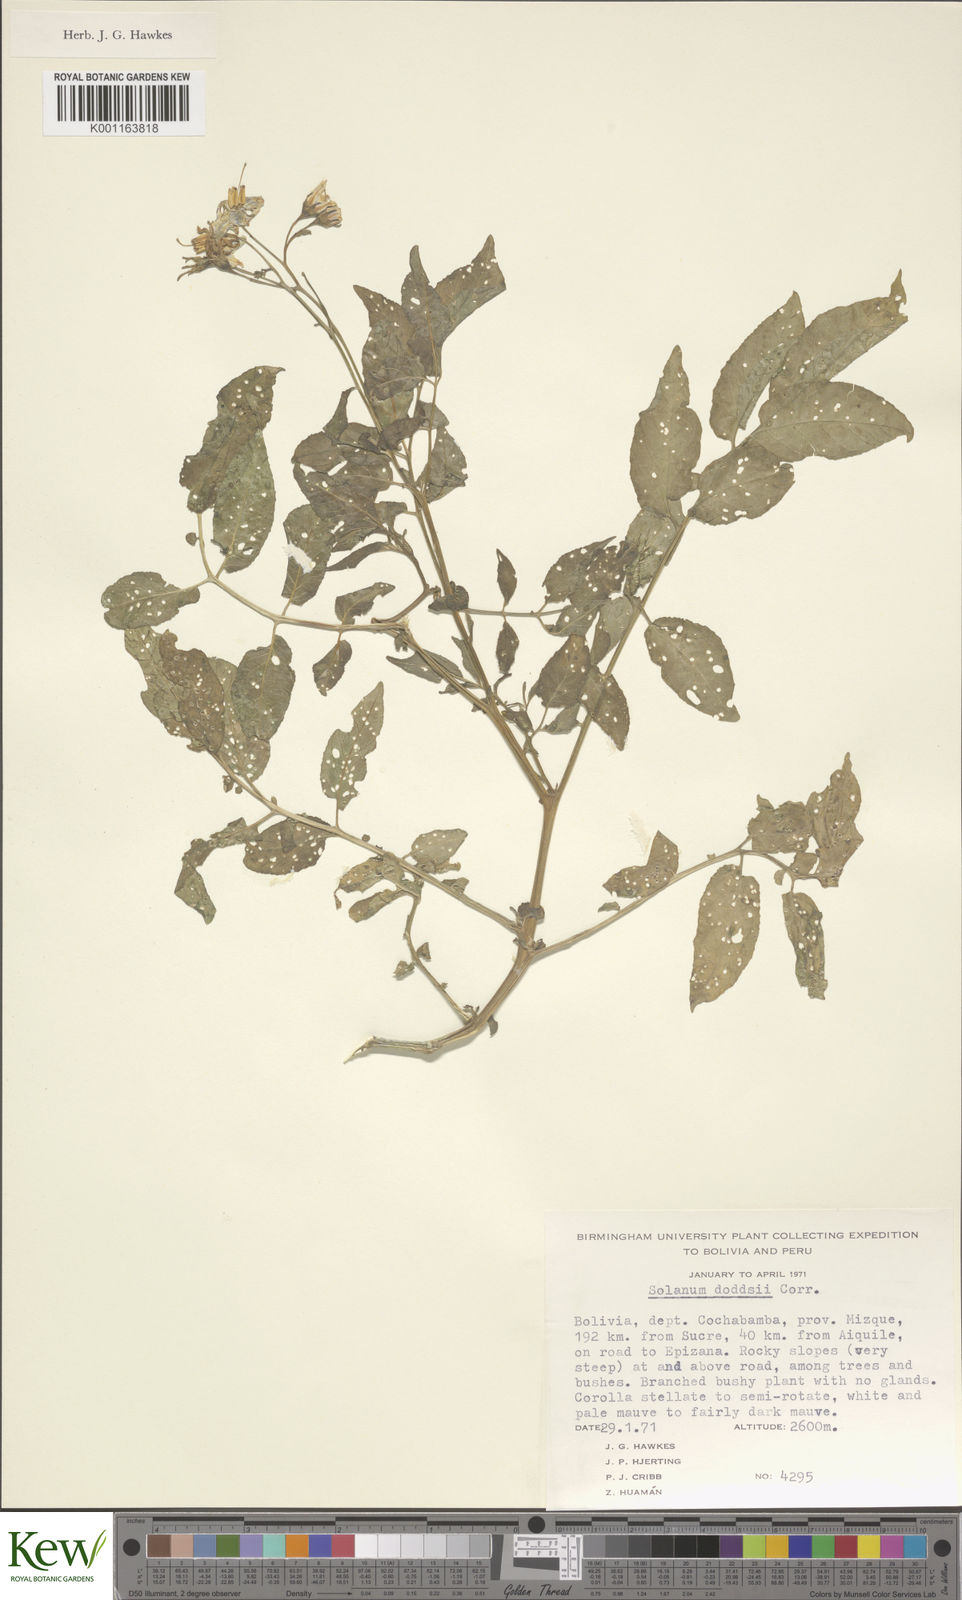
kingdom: Plantae
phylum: Tracheophyta
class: Magnoliopsida
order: Solanales
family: Solanaceae
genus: Solanum
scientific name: Solanum doddsii
